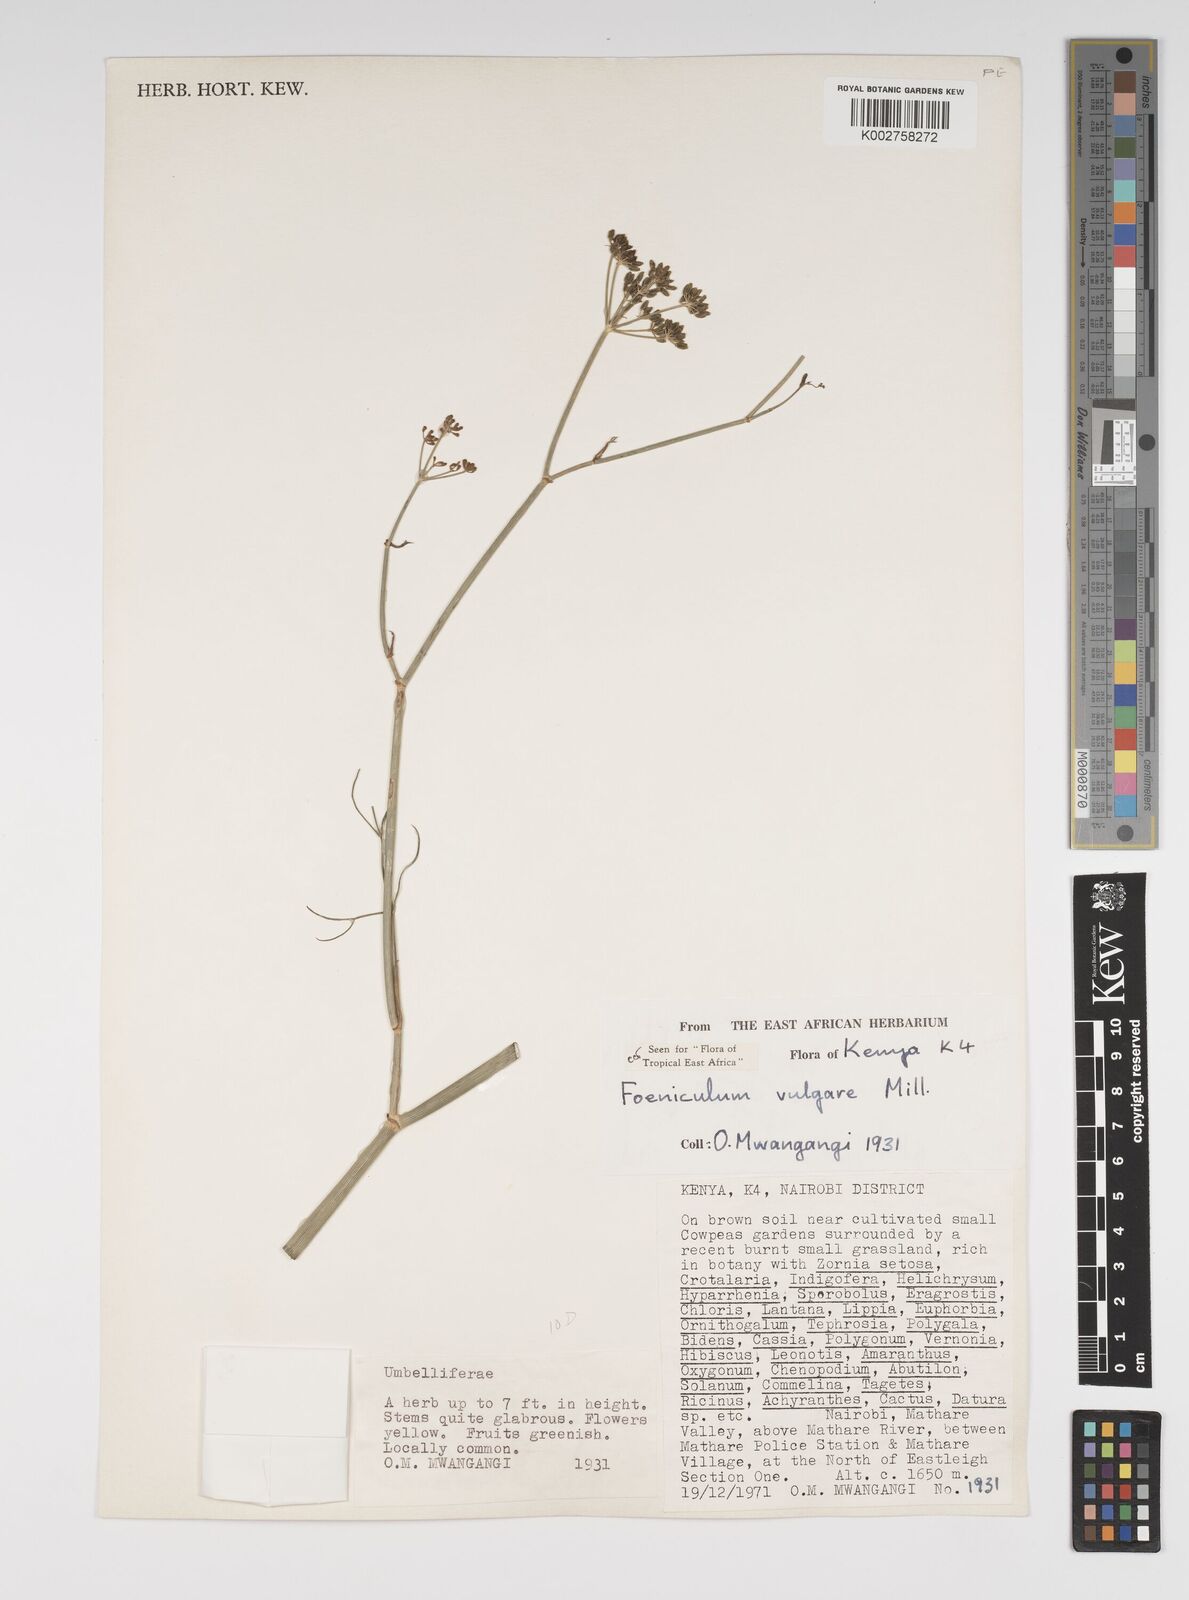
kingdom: Plantae
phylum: Tracheophyta
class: Magnoliopsida
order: Apiales
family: Apiaceae
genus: Foeniculum
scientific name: Foeniculum vulgare
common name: Fennel
